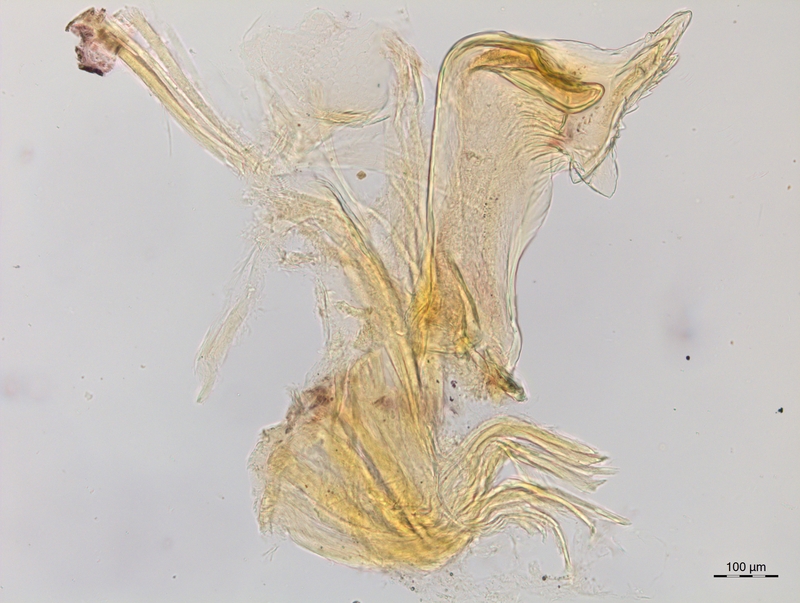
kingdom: Animalia
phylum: Arthropoda
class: Diplopoda
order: Chordeumatida
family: Craspedosomatidae
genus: Craspedosoma
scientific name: Craspedosoma brentanum
